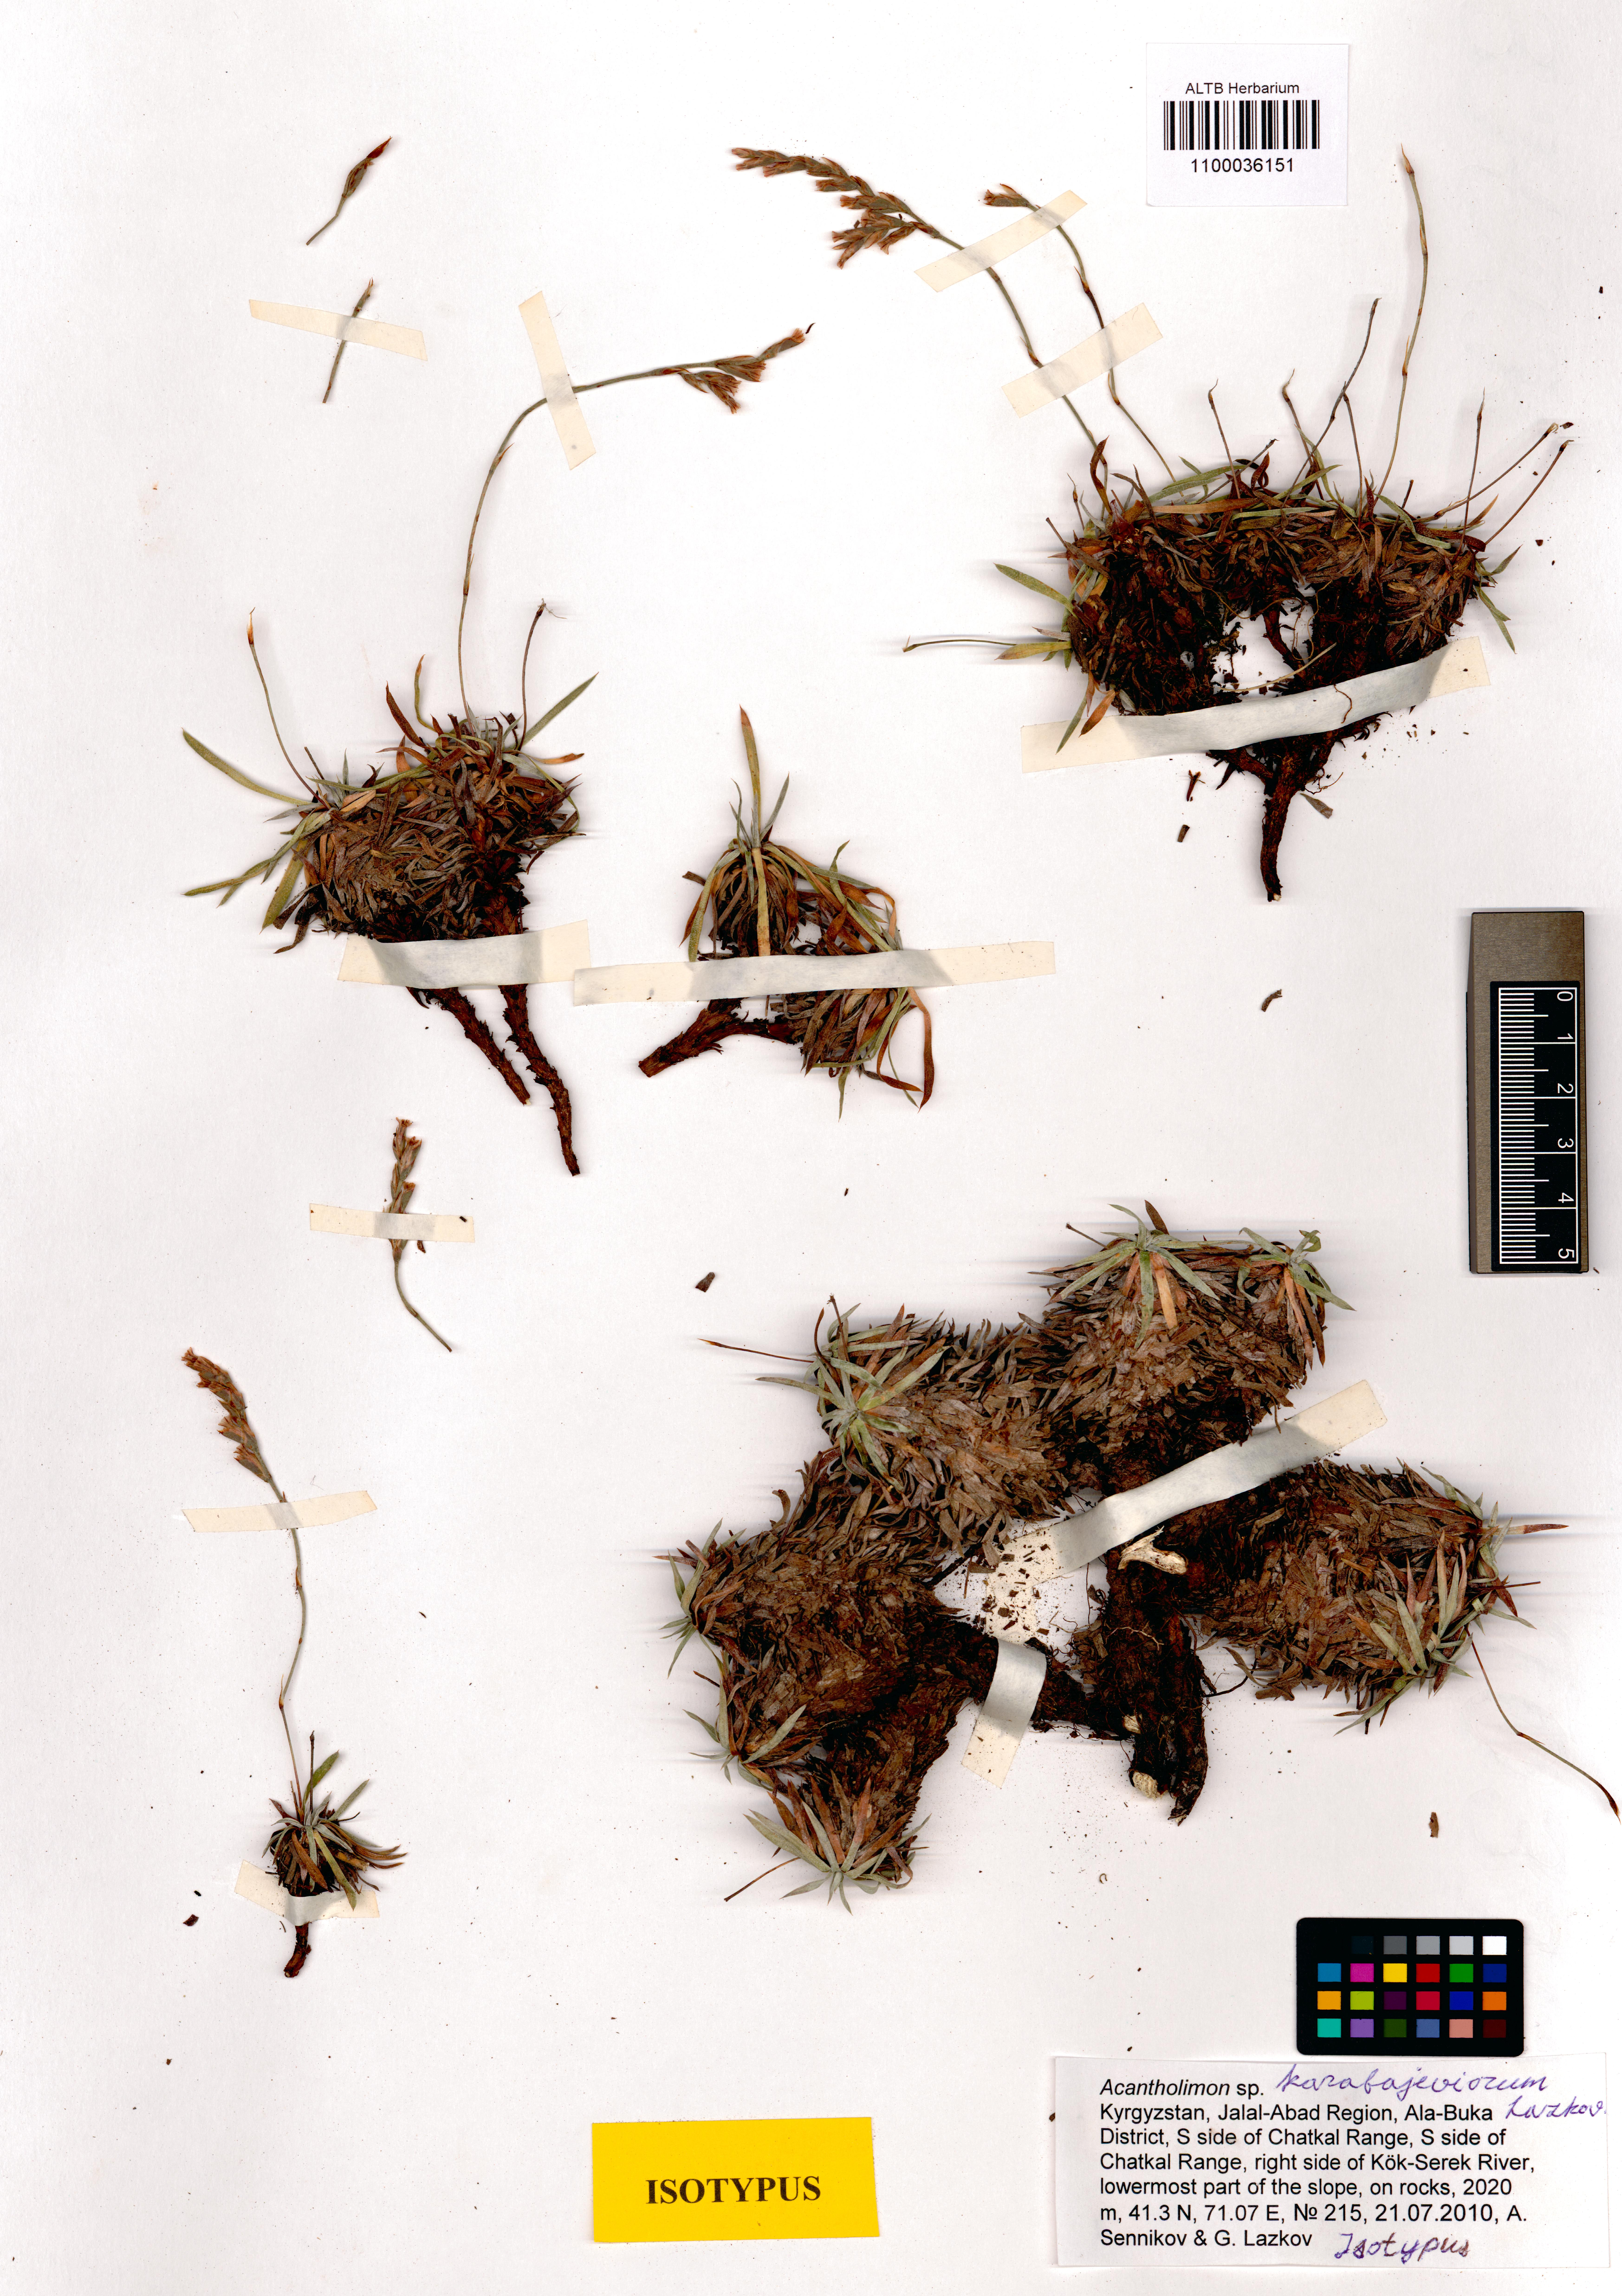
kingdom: Plantae
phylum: Tracheophyta
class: Magnoliopsida
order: Caryophyllales
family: Plumbaginaceae
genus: Acantholimon
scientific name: Acantholimon karabajeviorum
